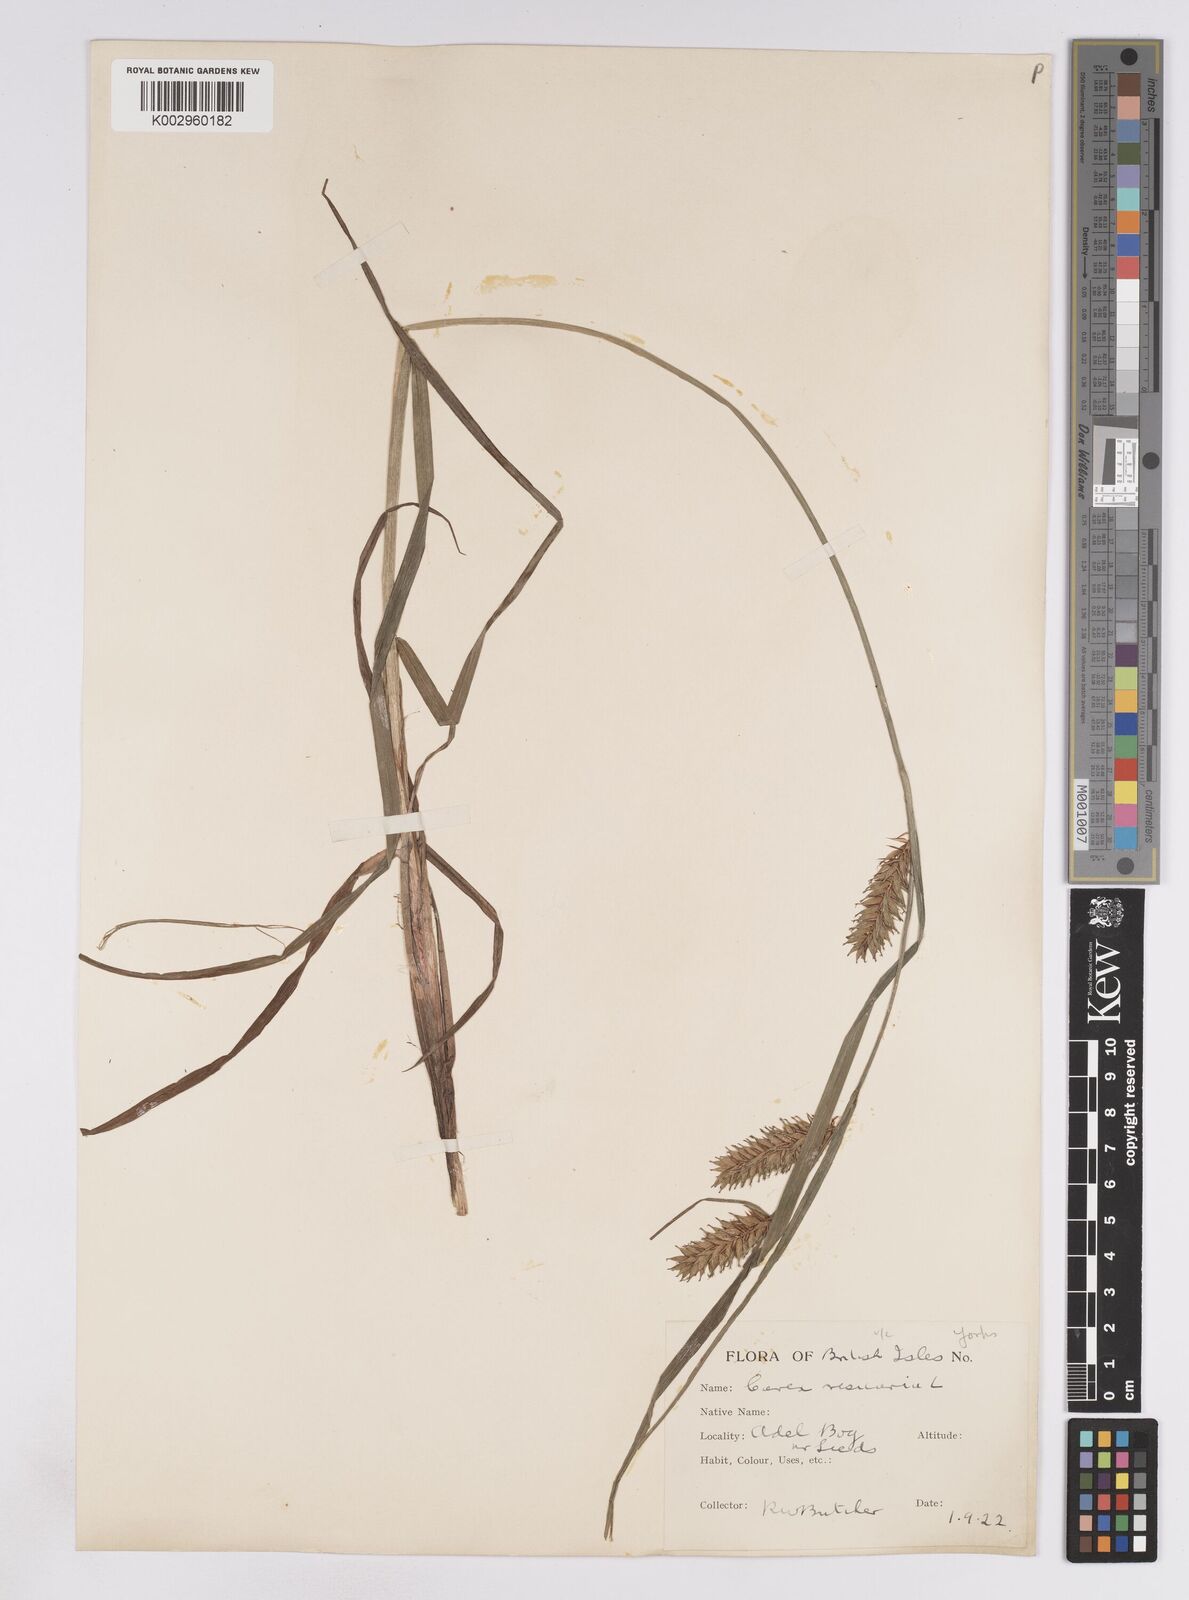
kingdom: Plantae
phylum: Tracheophyta
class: Liliopsida
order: Poales
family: Cyperaceae
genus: Carex
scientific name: Carex vesicaria
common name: Bladder-sedge
